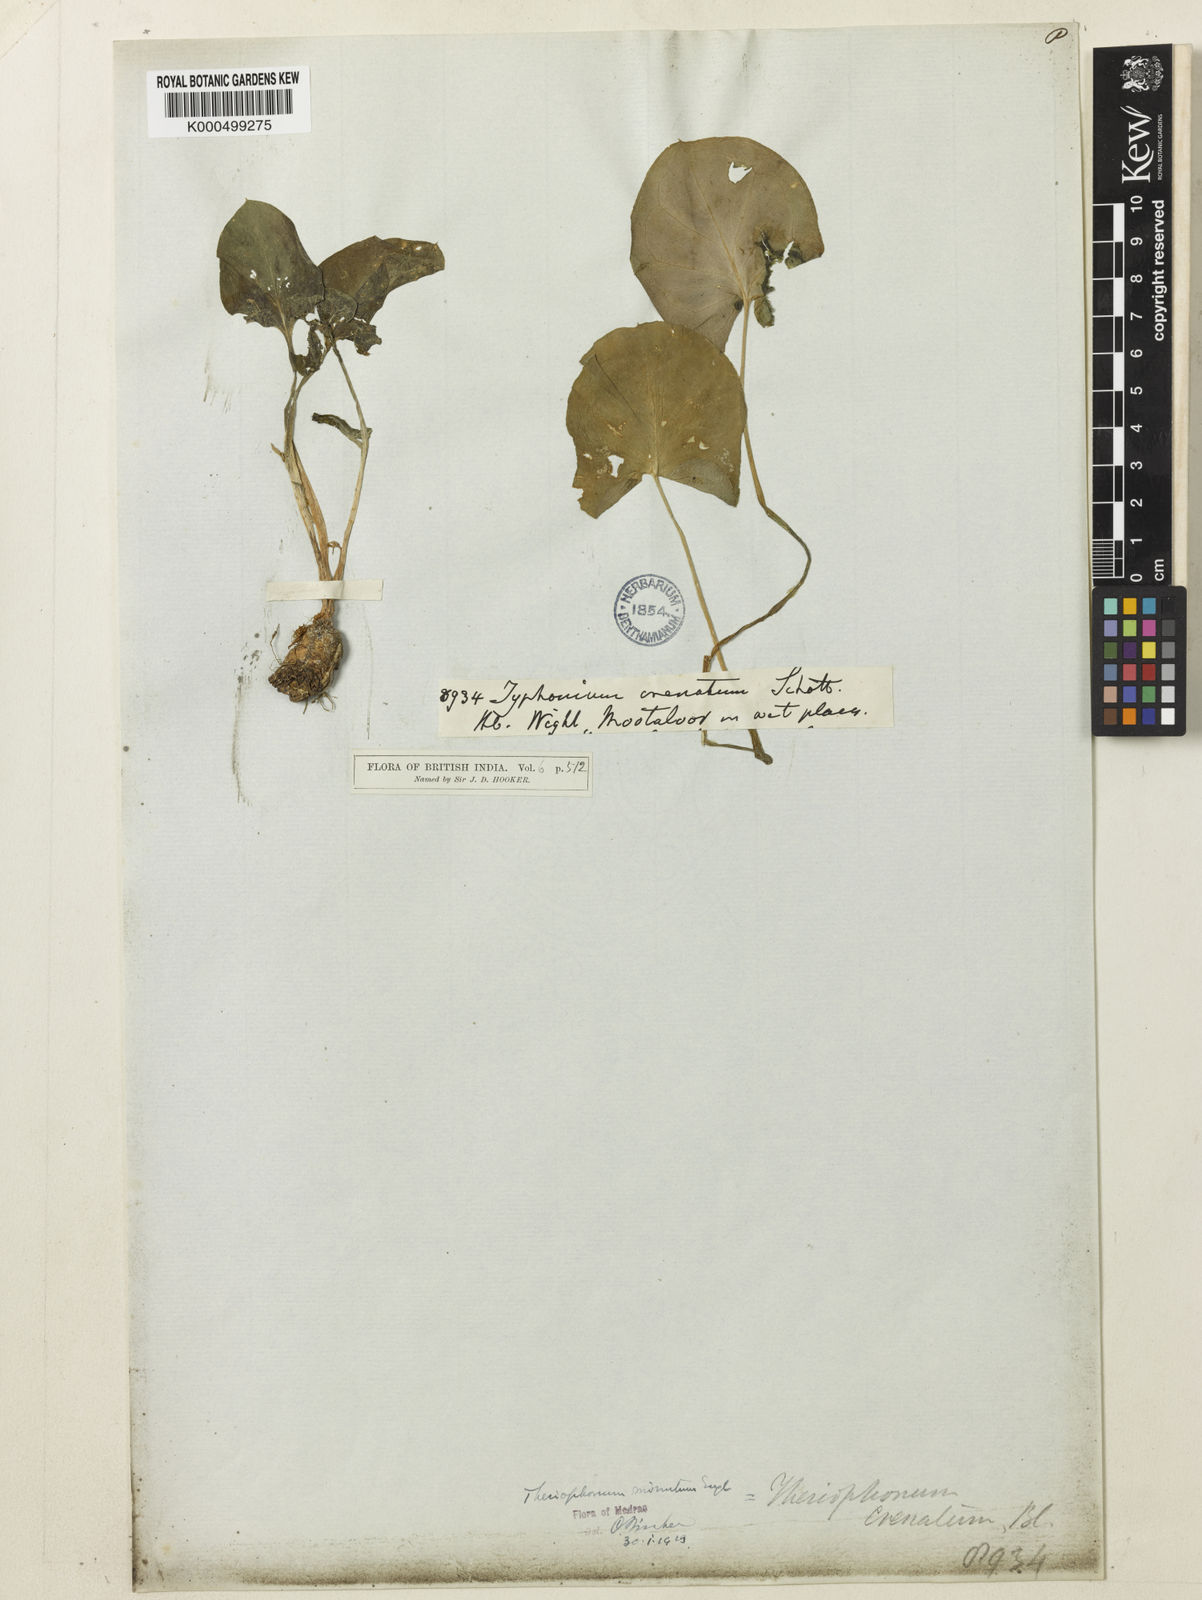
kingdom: Plantae
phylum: Tracheophyta
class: Liliopsida
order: Alismatales
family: Araceae
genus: Theriophonum
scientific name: Theriophonum
